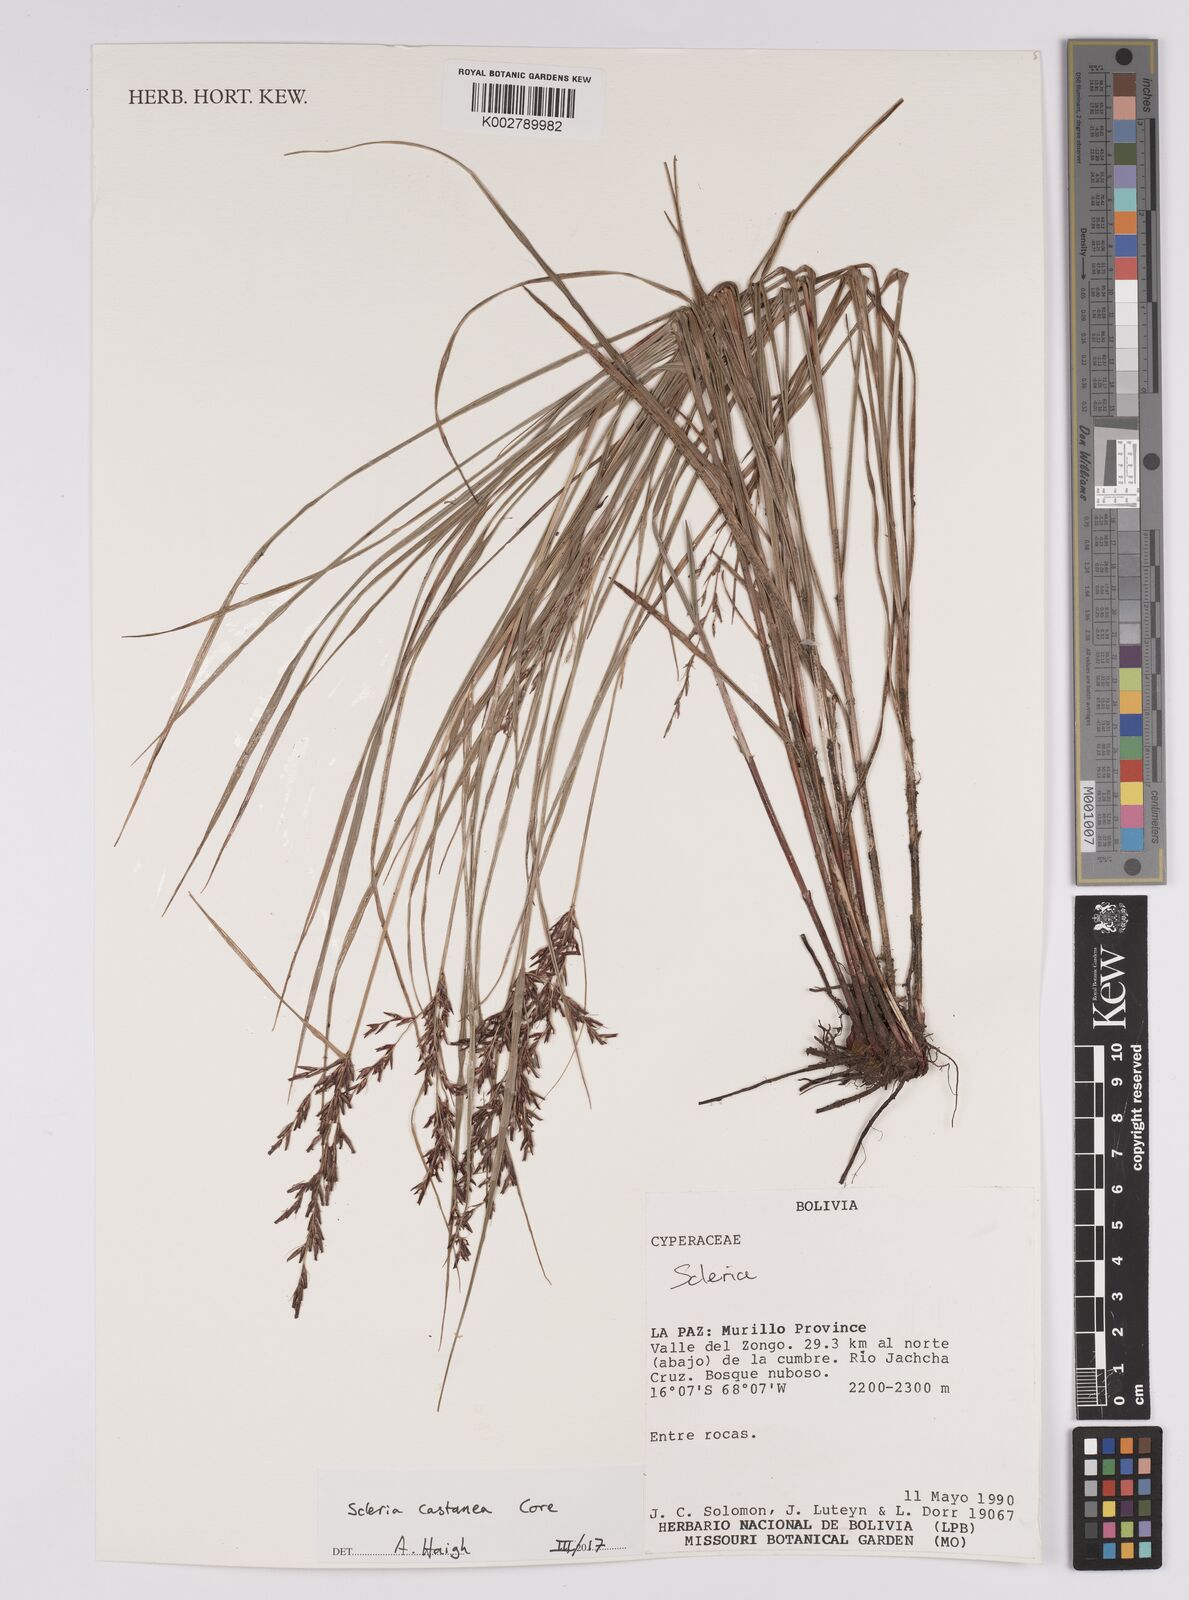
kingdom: Plantae
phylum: Tracheophyta
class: Liliopsida
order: Poales
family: Cyperaceae
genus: Scleria
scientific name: Scleria
